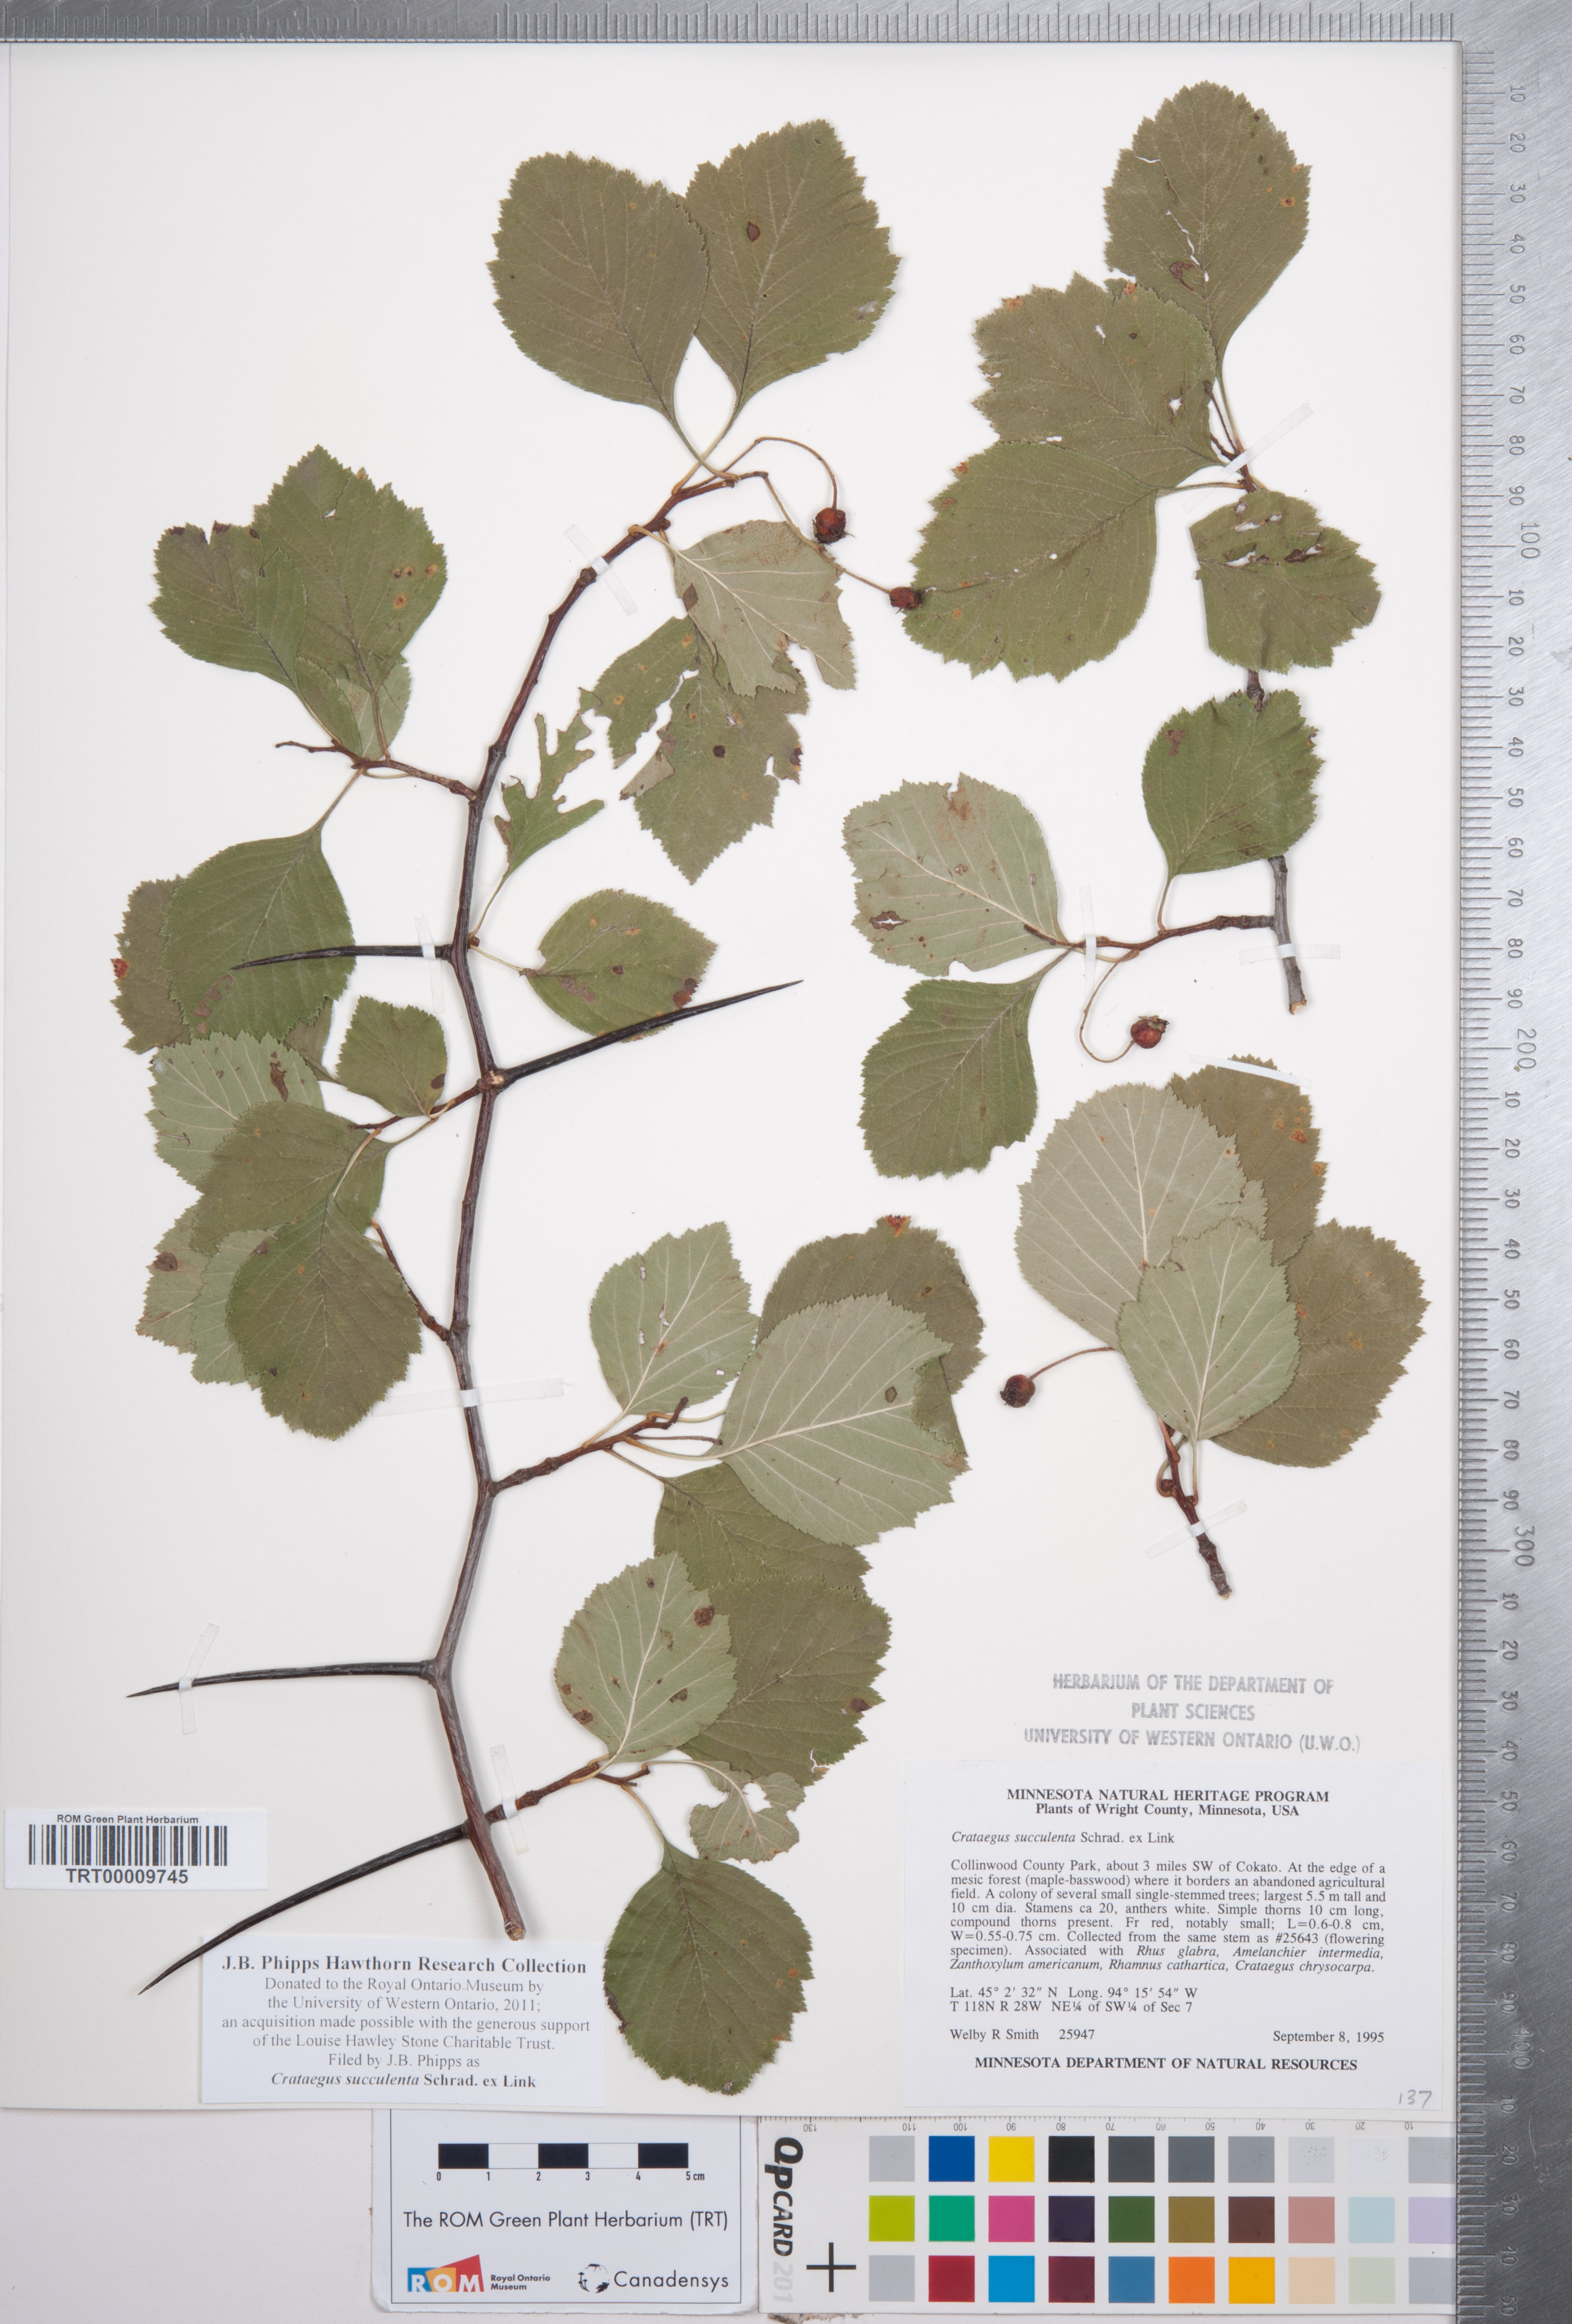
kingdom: Plantae
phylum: Tracheophyta
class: Magnoliopsida
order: Rosales
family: Rosaceae
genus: Crataegus
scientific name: Crataegus succulenta
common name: Fleshy hawthorn
